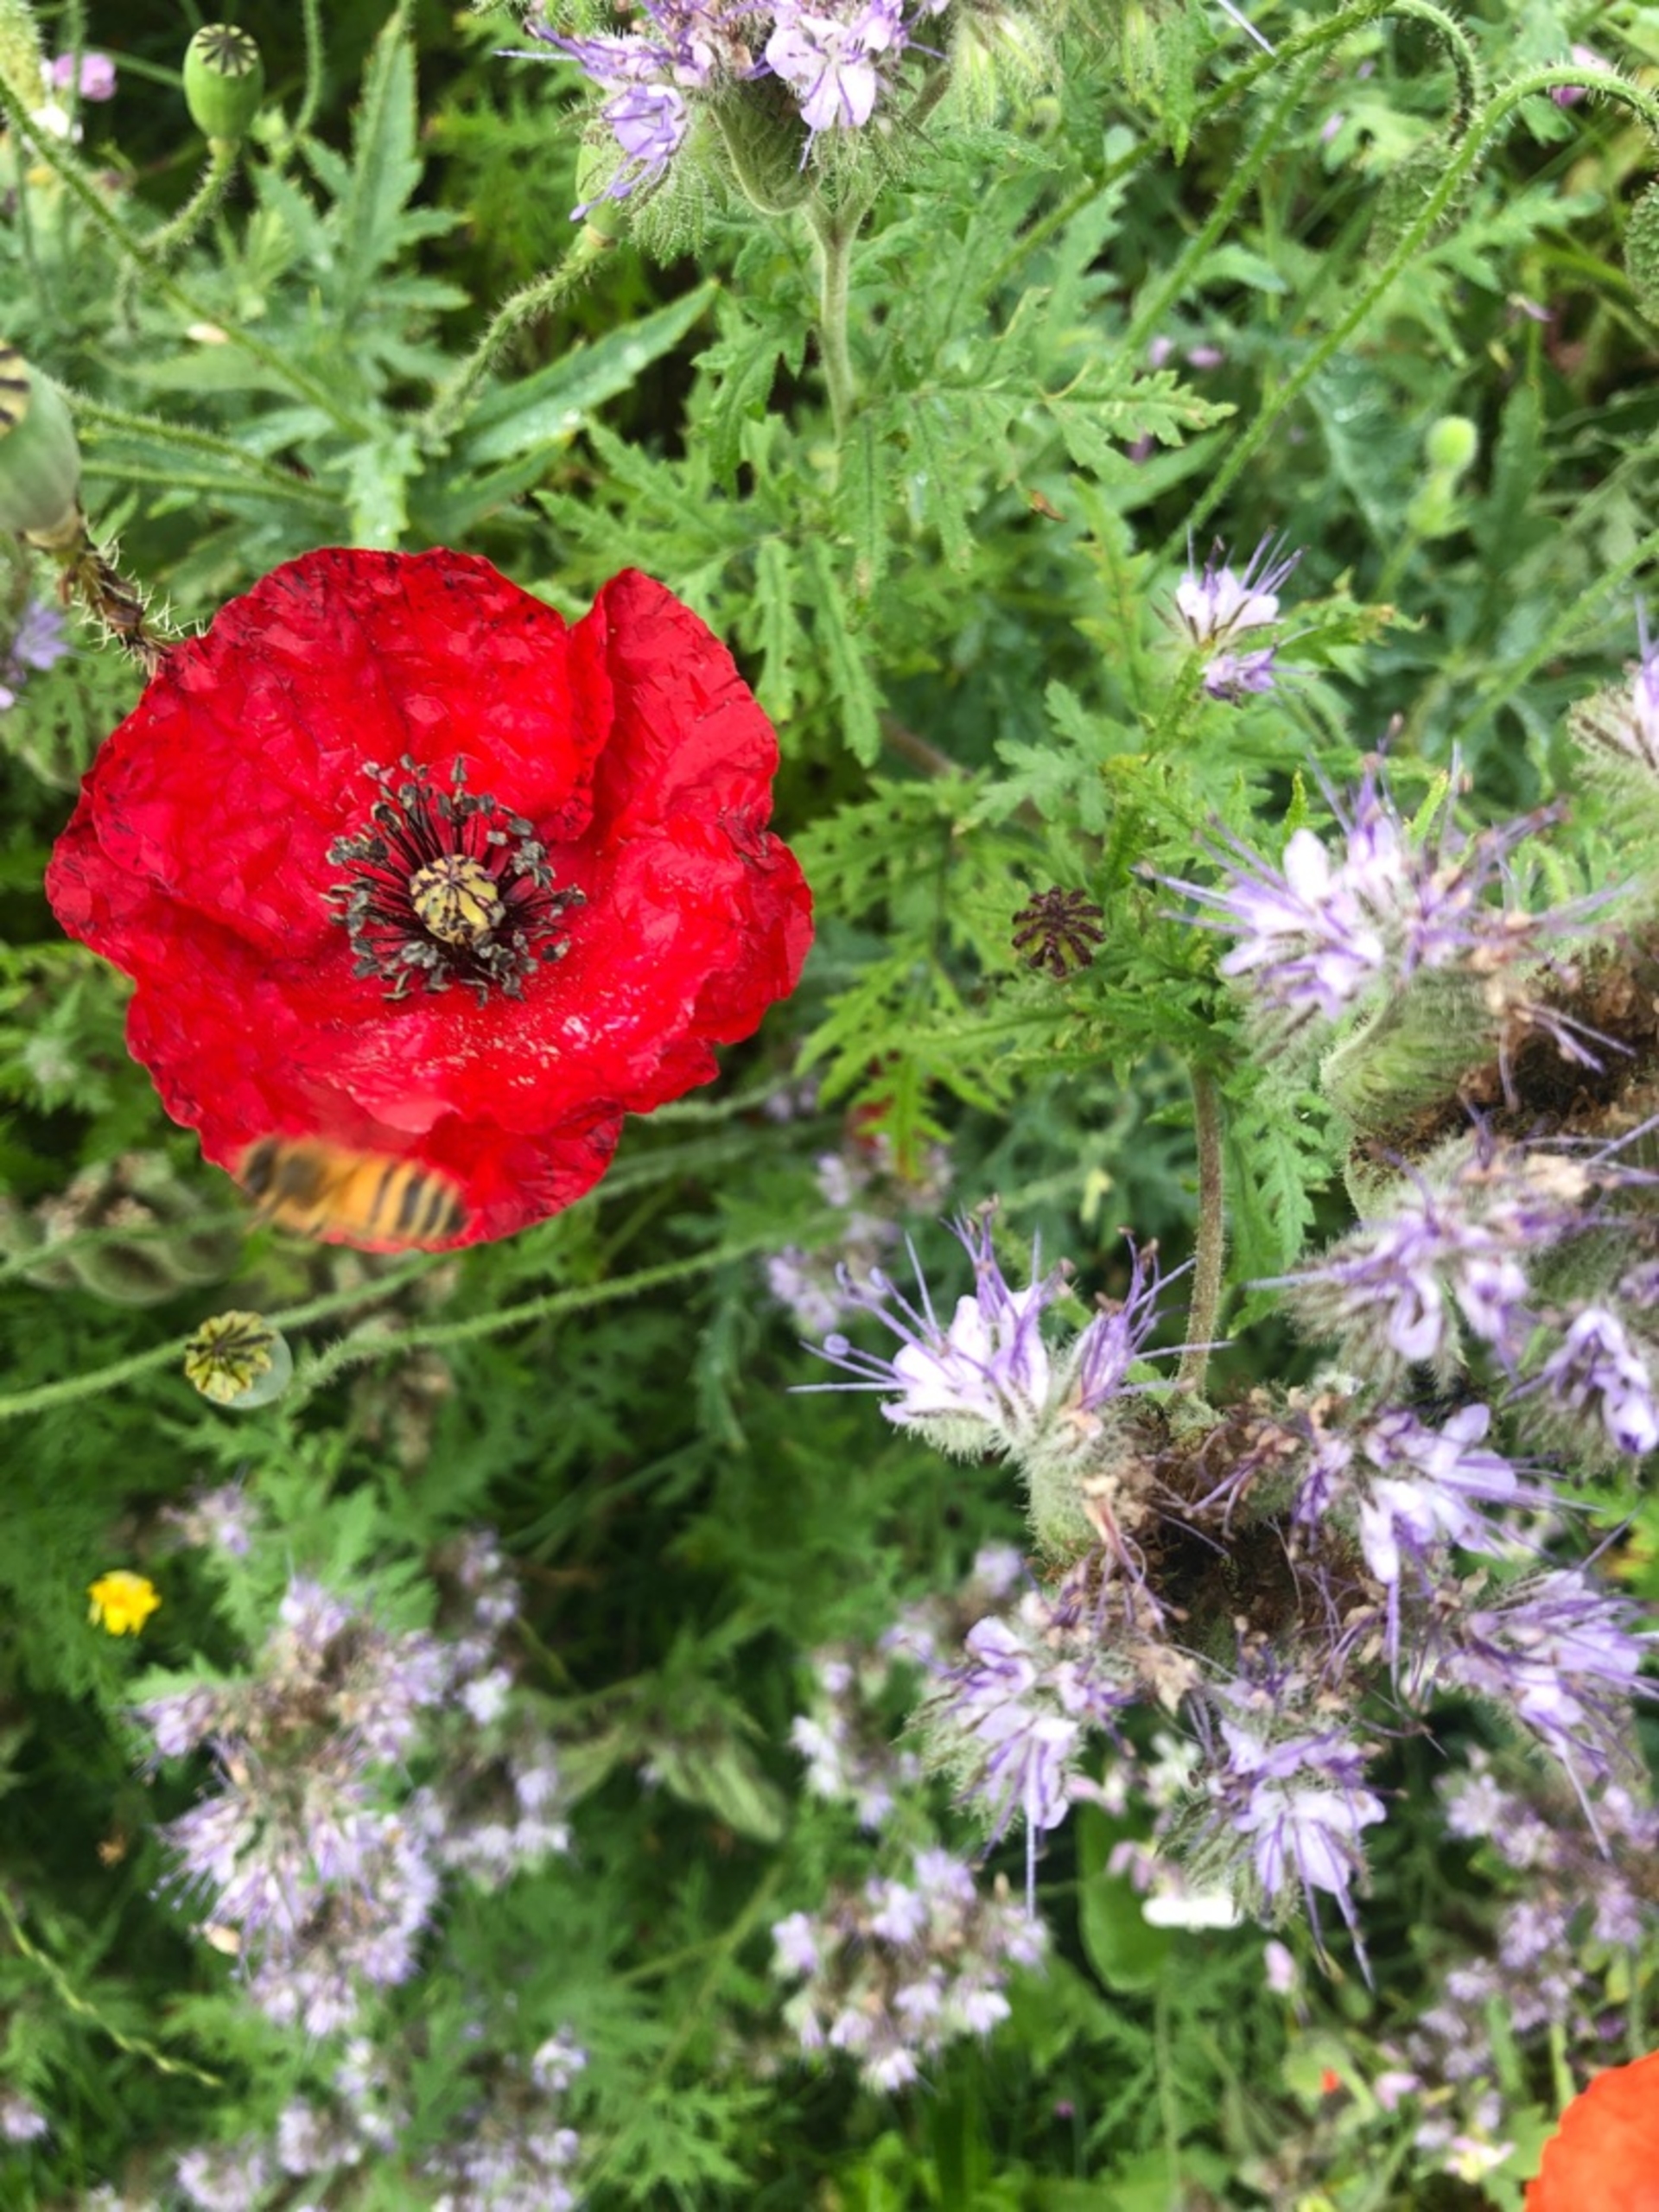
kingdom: Animalia
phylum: Arthropoda
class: Insecta
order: Hymenoptera
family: Apidae
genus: Apis
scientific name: Apis mellifera
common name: Honningbi
